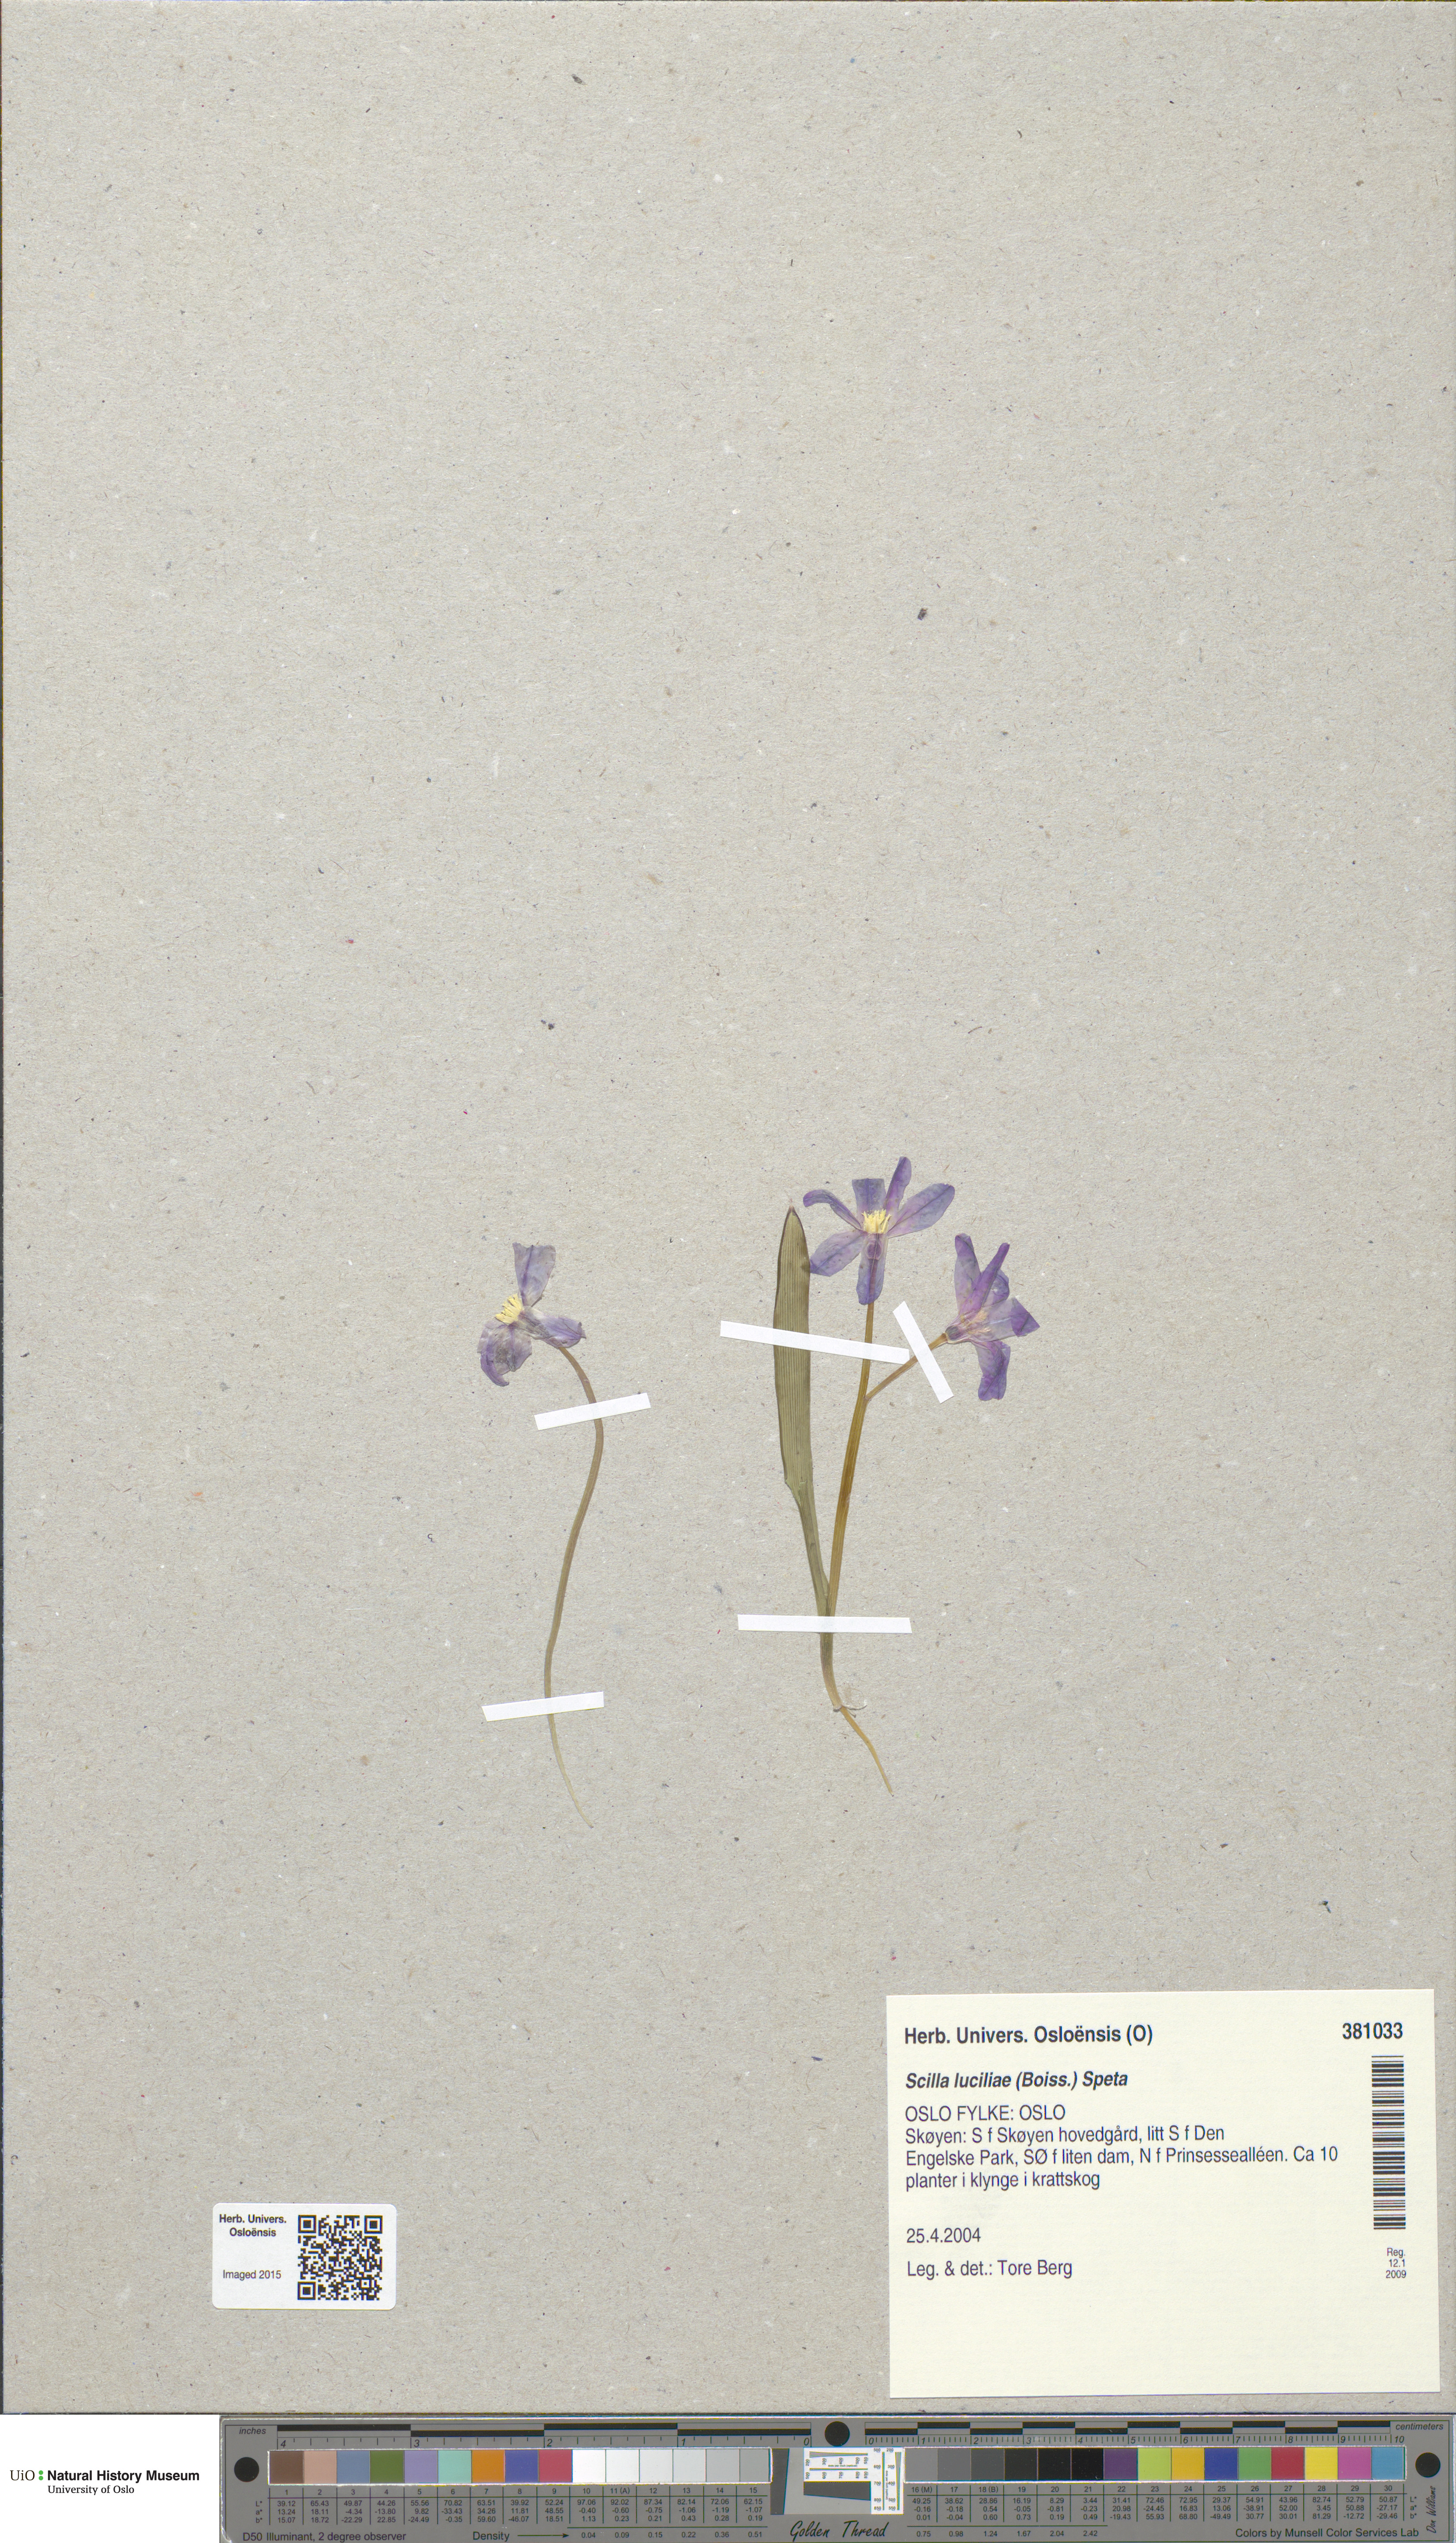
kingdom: Plantae
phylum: Tracheophyta
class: Liliopsida
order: Asparagales
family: Asparagaceae
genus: Scilla
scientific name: Scilla luciliae
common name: Boissier's glory-of-the-snow
